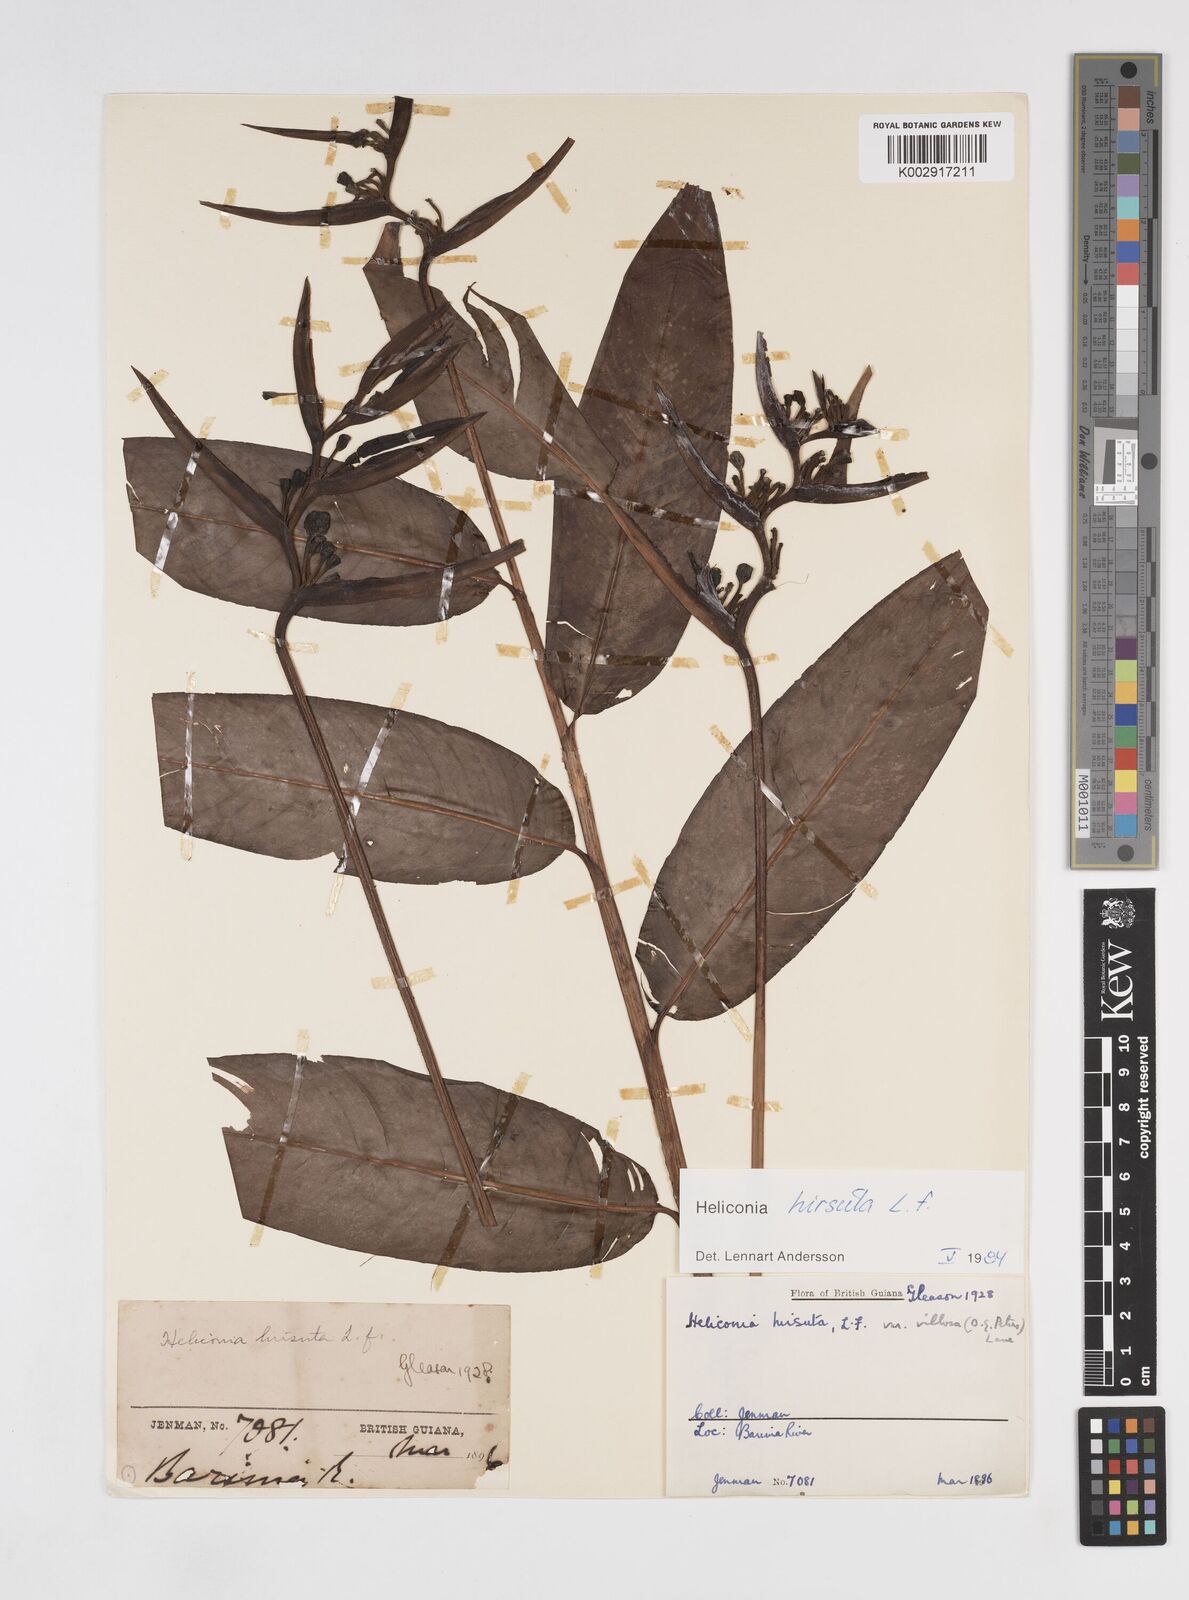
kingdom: Plantae
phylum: Tracheophyta
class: Liliopsida
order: Zingiberales
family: Heliconiaceae
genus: Heliconia
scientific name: Heliconia hirsuta
